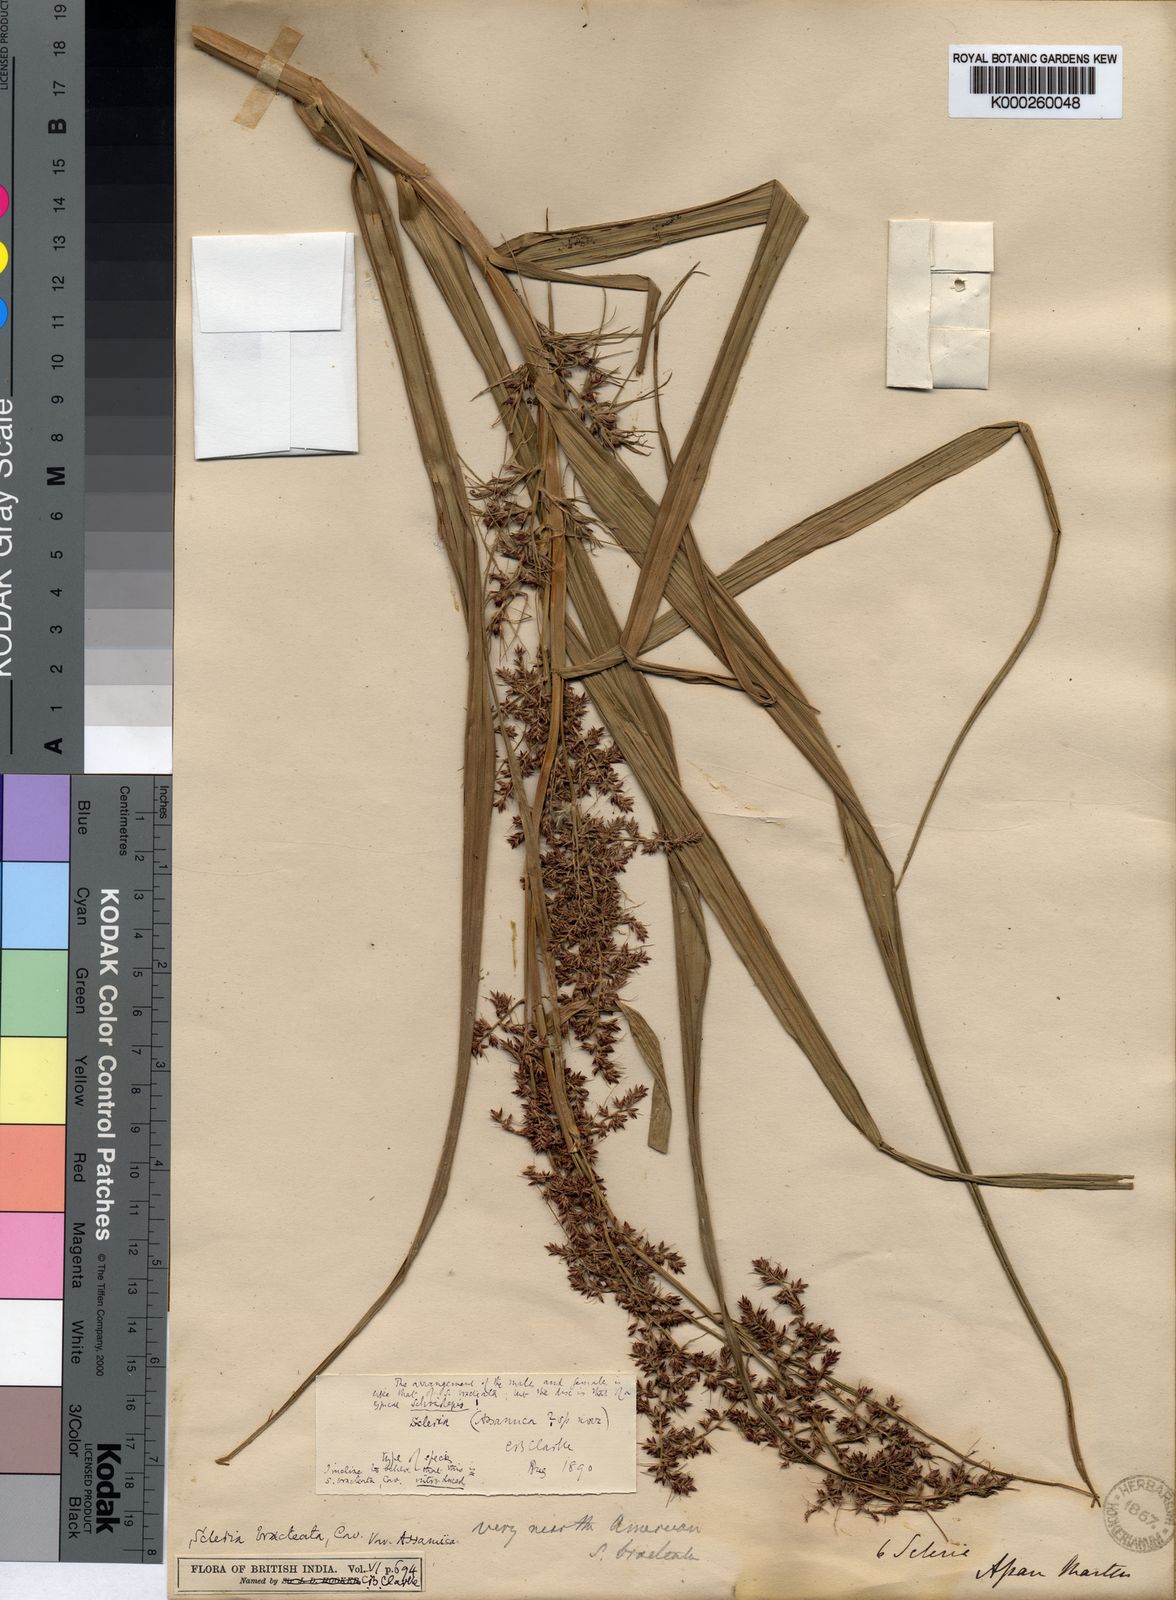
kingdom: Plantae
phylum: Tracheophyta
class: Liliopsida
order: Poales
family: Cyperaceae
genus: Scleria
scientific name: Scleria bracteata
